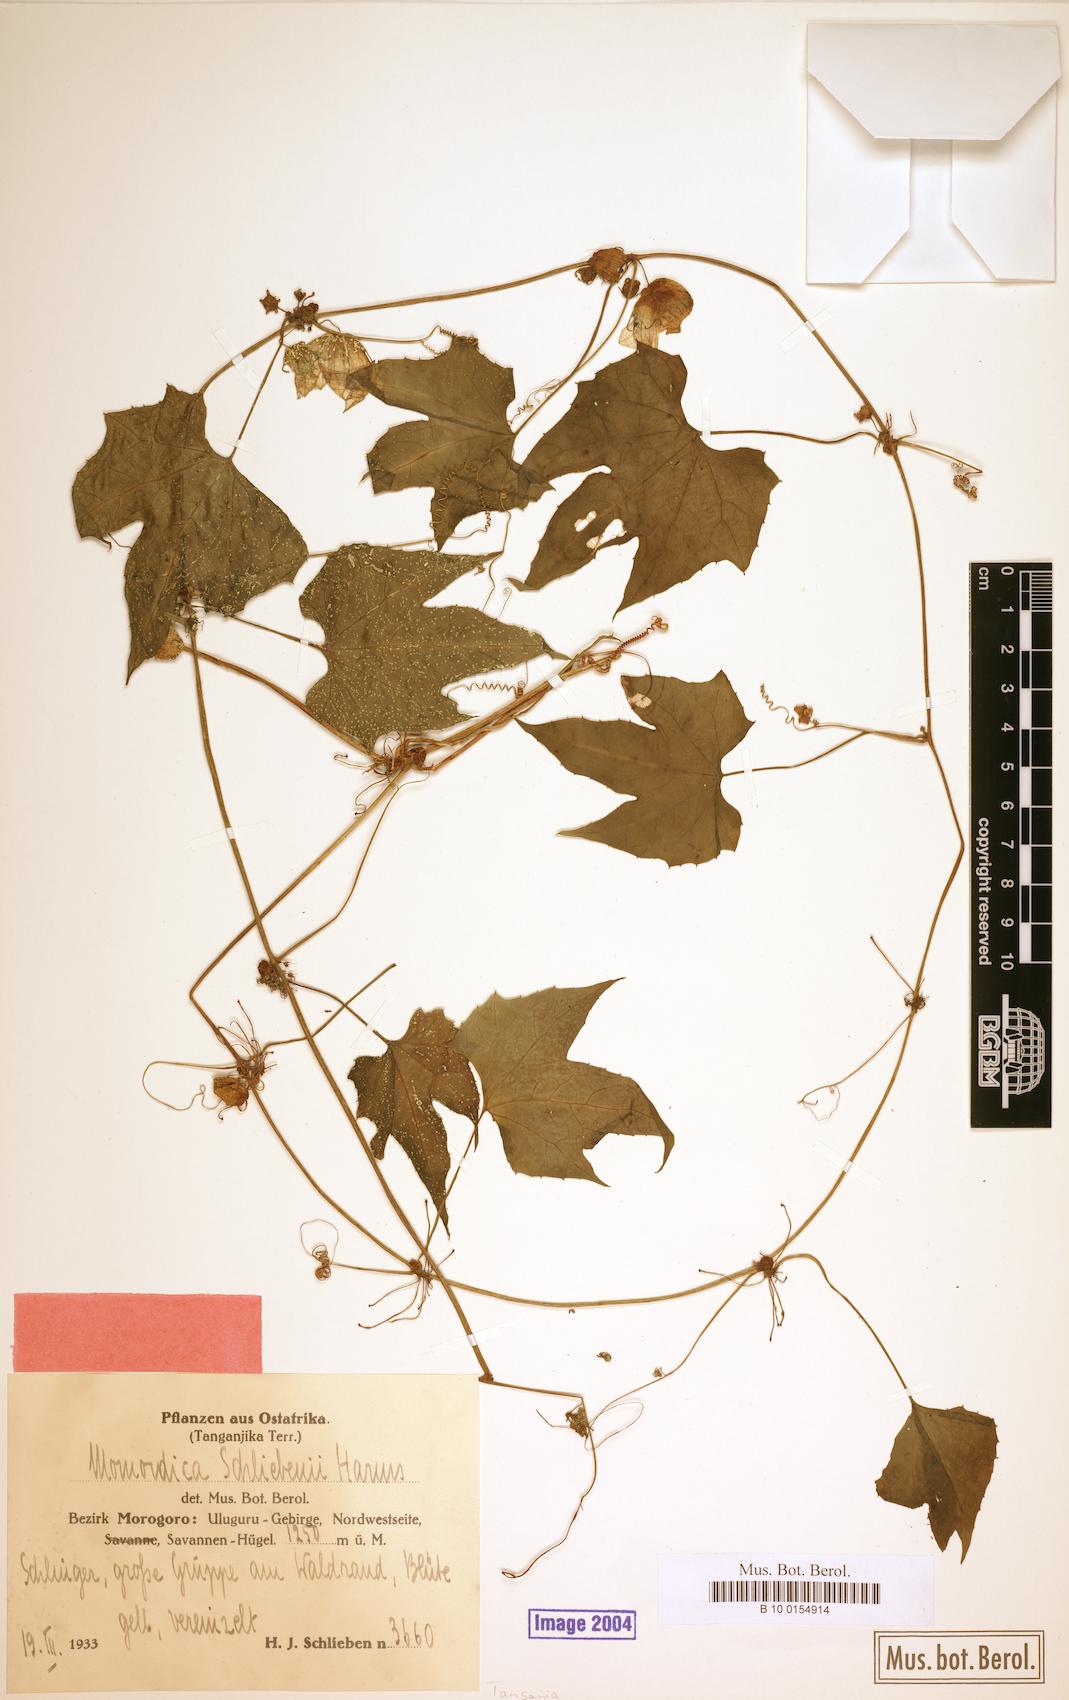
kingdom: Plantae
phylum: Tracheophyta
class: Magnoliopsida
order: Cucurbitales
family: Cucurbitaceae
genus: Diplocyclos
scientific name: Diplocyclos schliebenii
